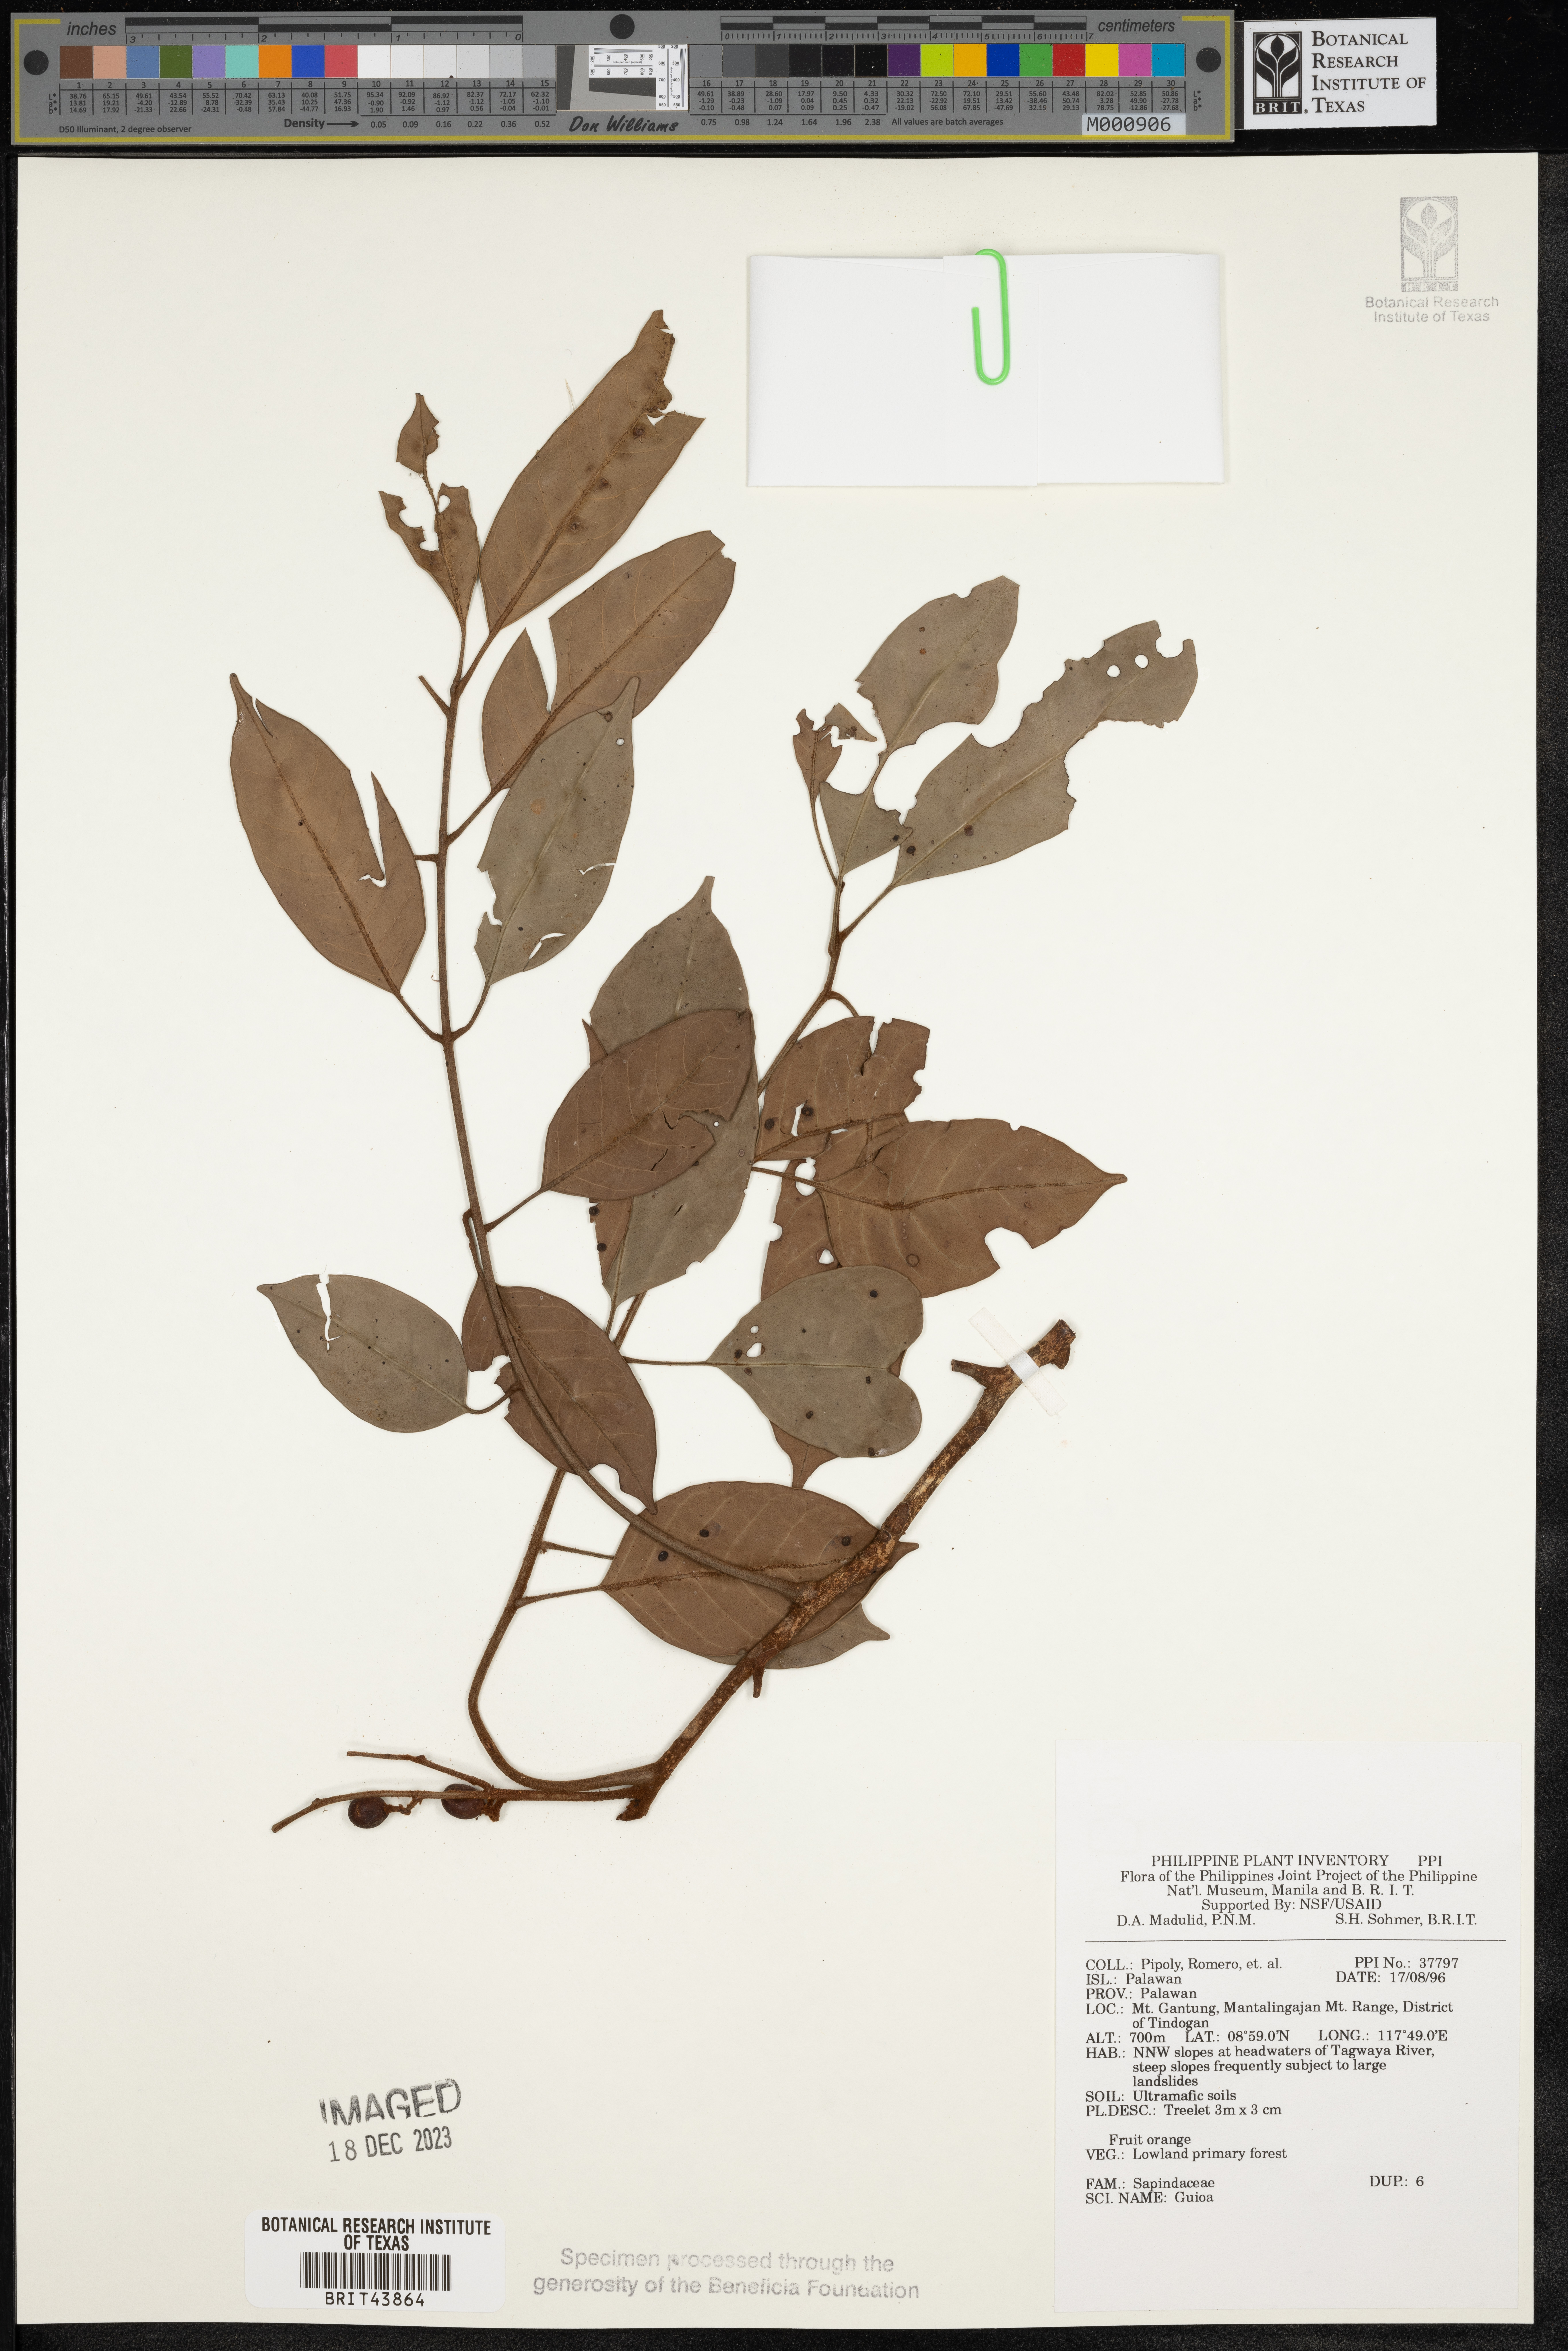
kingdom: Plantae
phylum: Tracheophyta
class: Magnoliopsida
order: Sapindales
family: Sapindaceae
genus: Guioa
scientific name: Guioa
